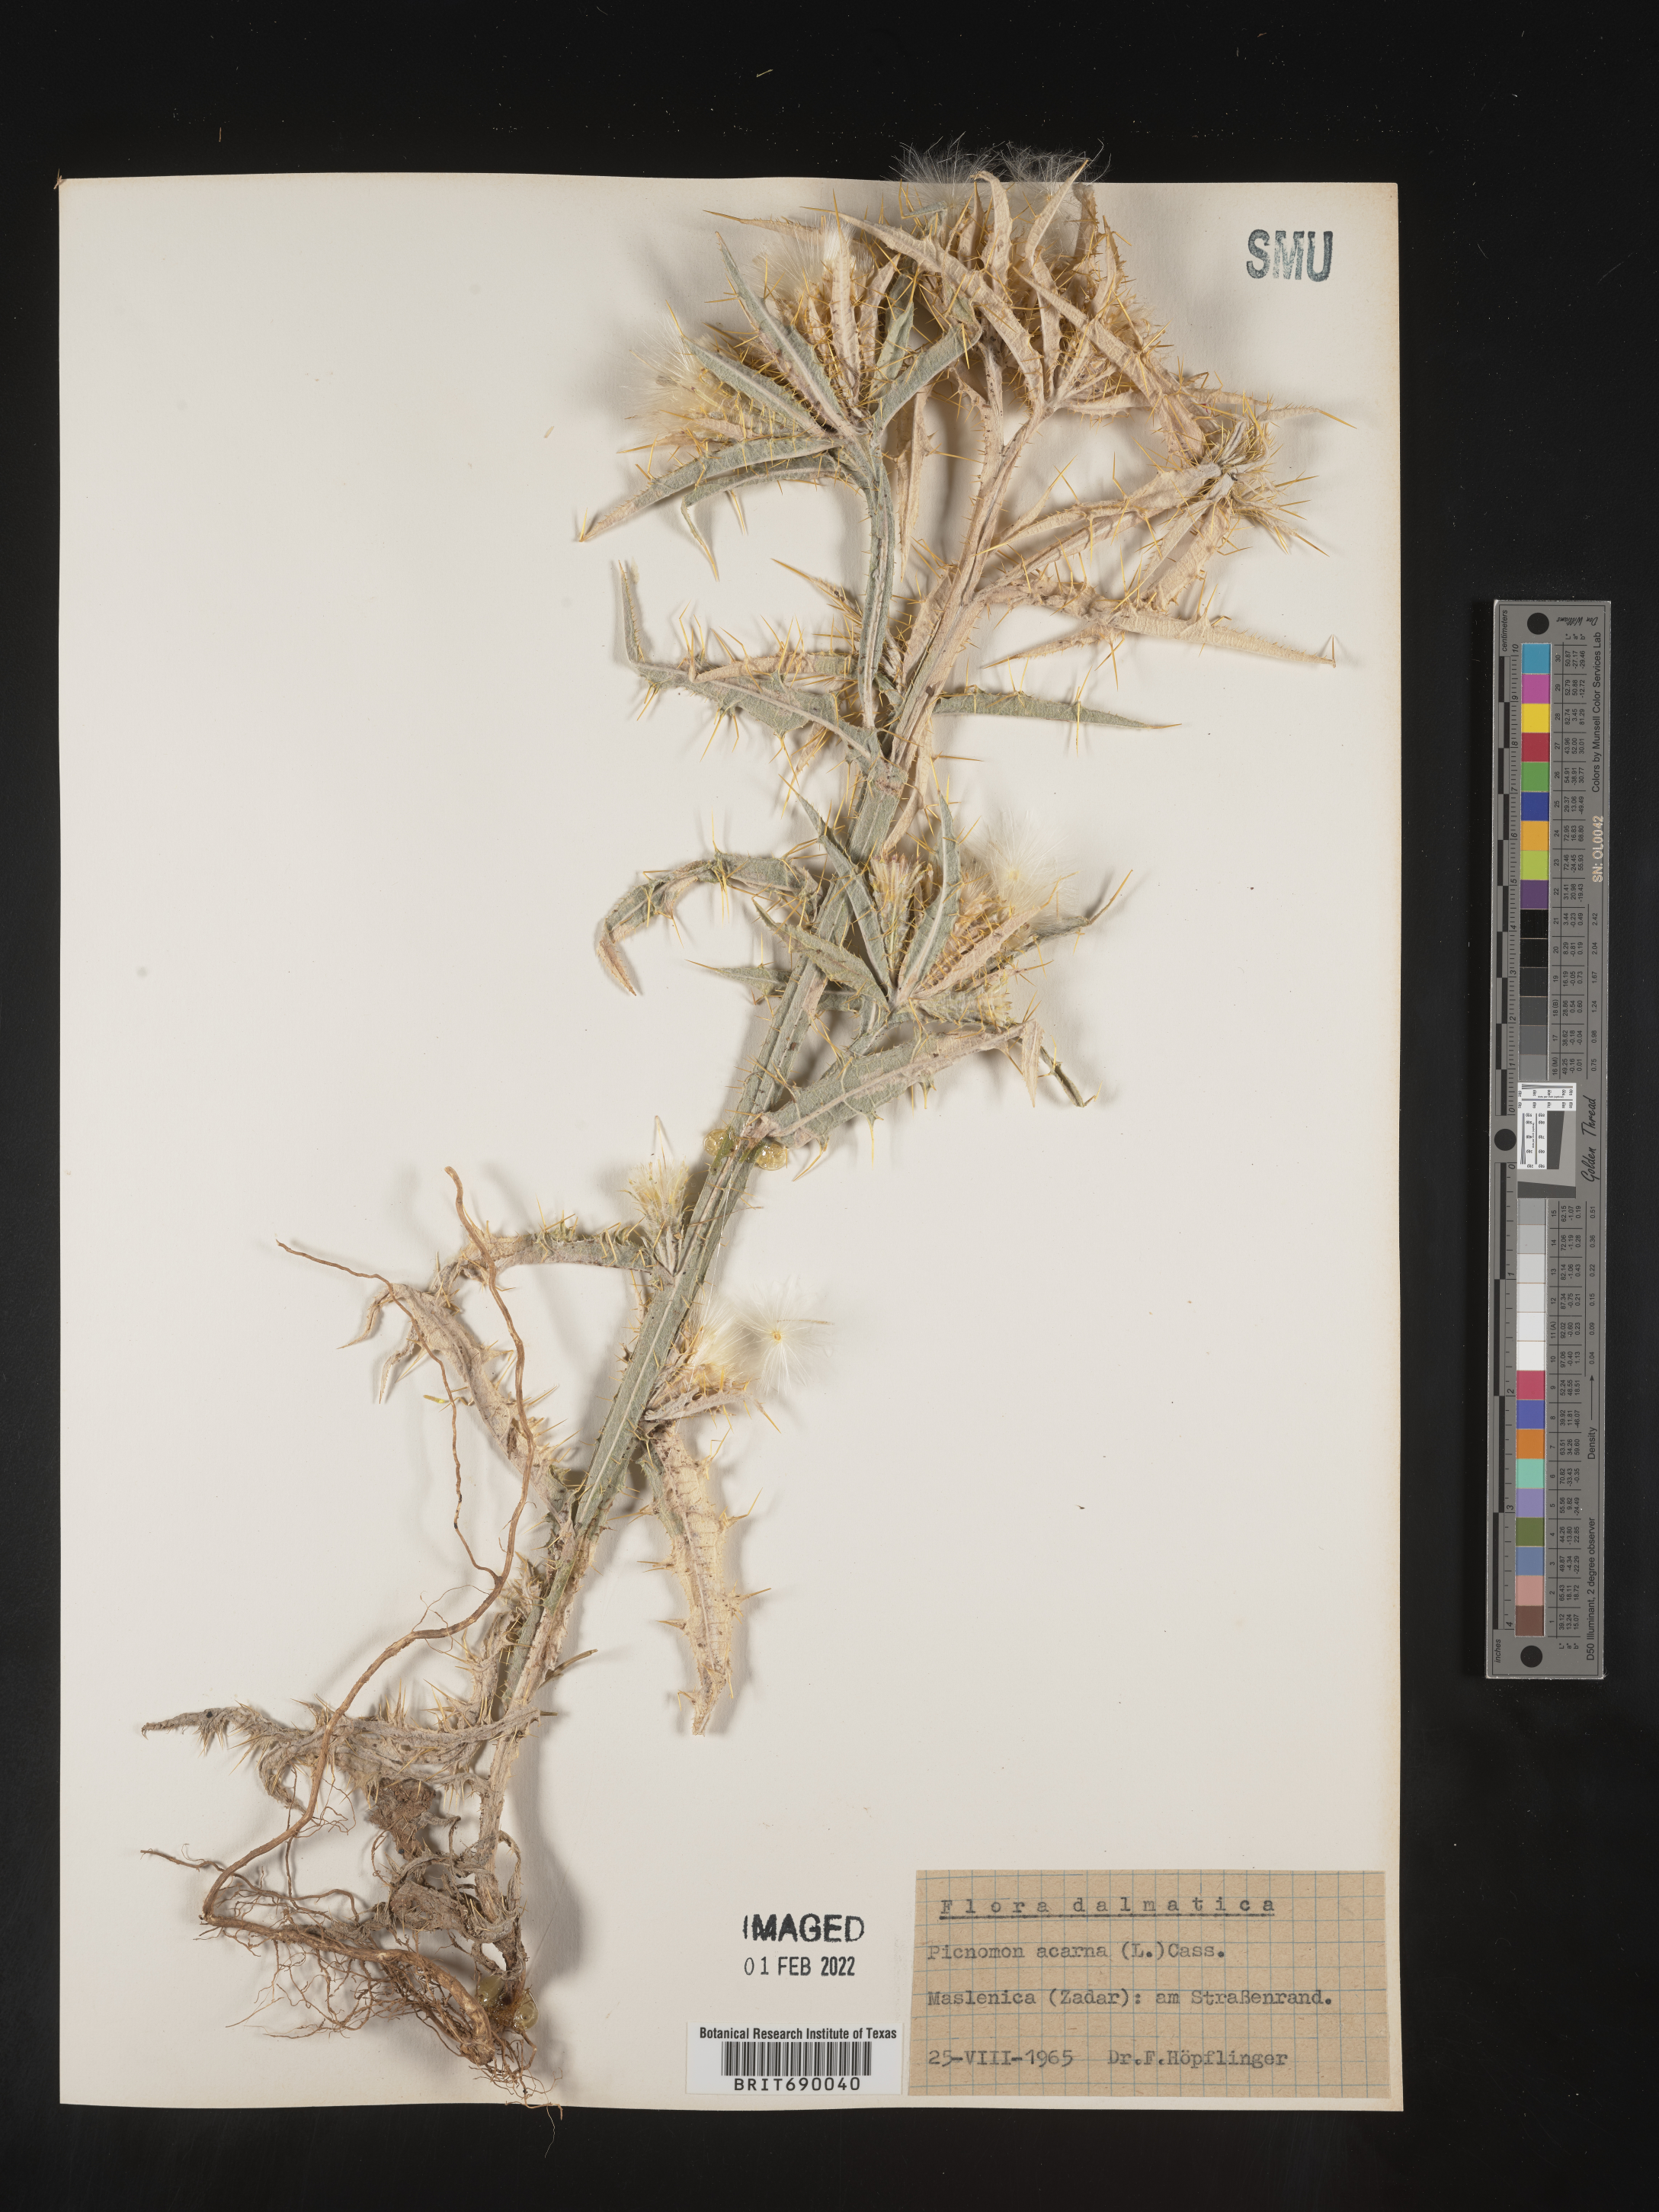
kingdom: Plantae
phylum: Tracheophyta
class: Magnoliopsida
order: Asterales
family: Asteraceae
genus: Cirsium
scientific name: Cirsium
